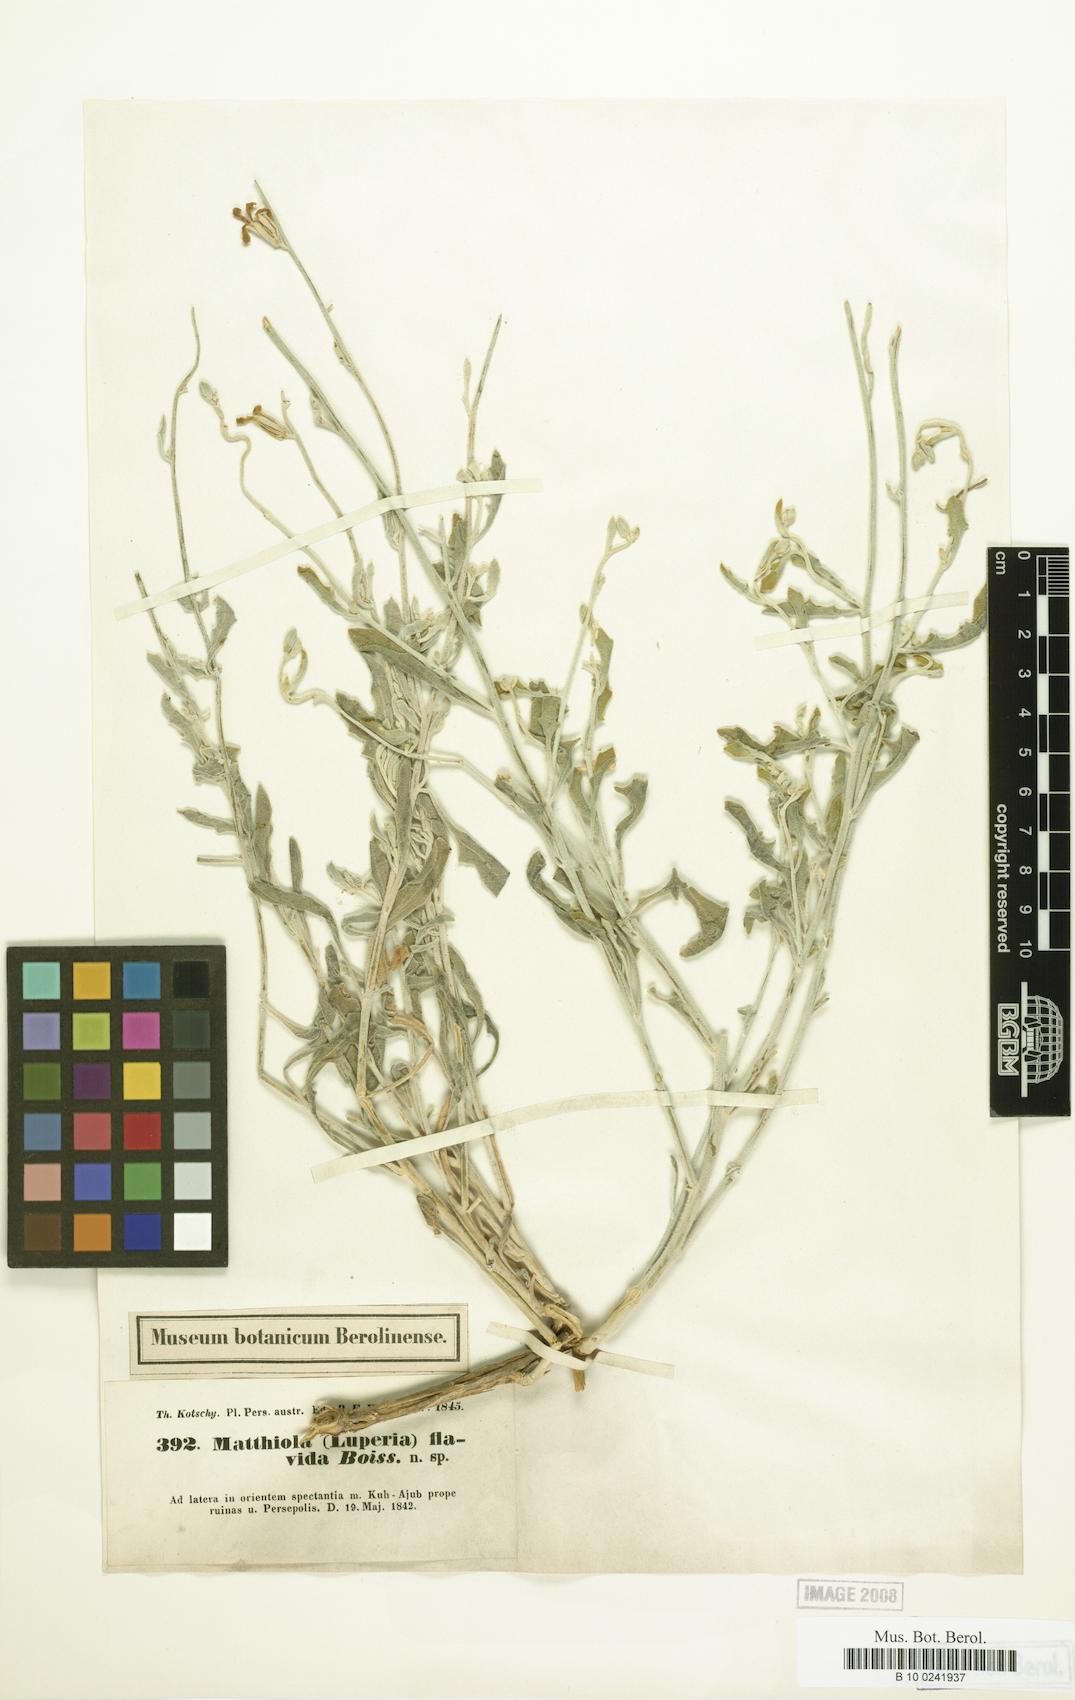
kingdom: Plantae
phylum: Tracheophyta
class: Magnoliopsida
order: Brassicales
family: Brassicaceae
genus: Matthiola
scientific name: Matthiola flavida
